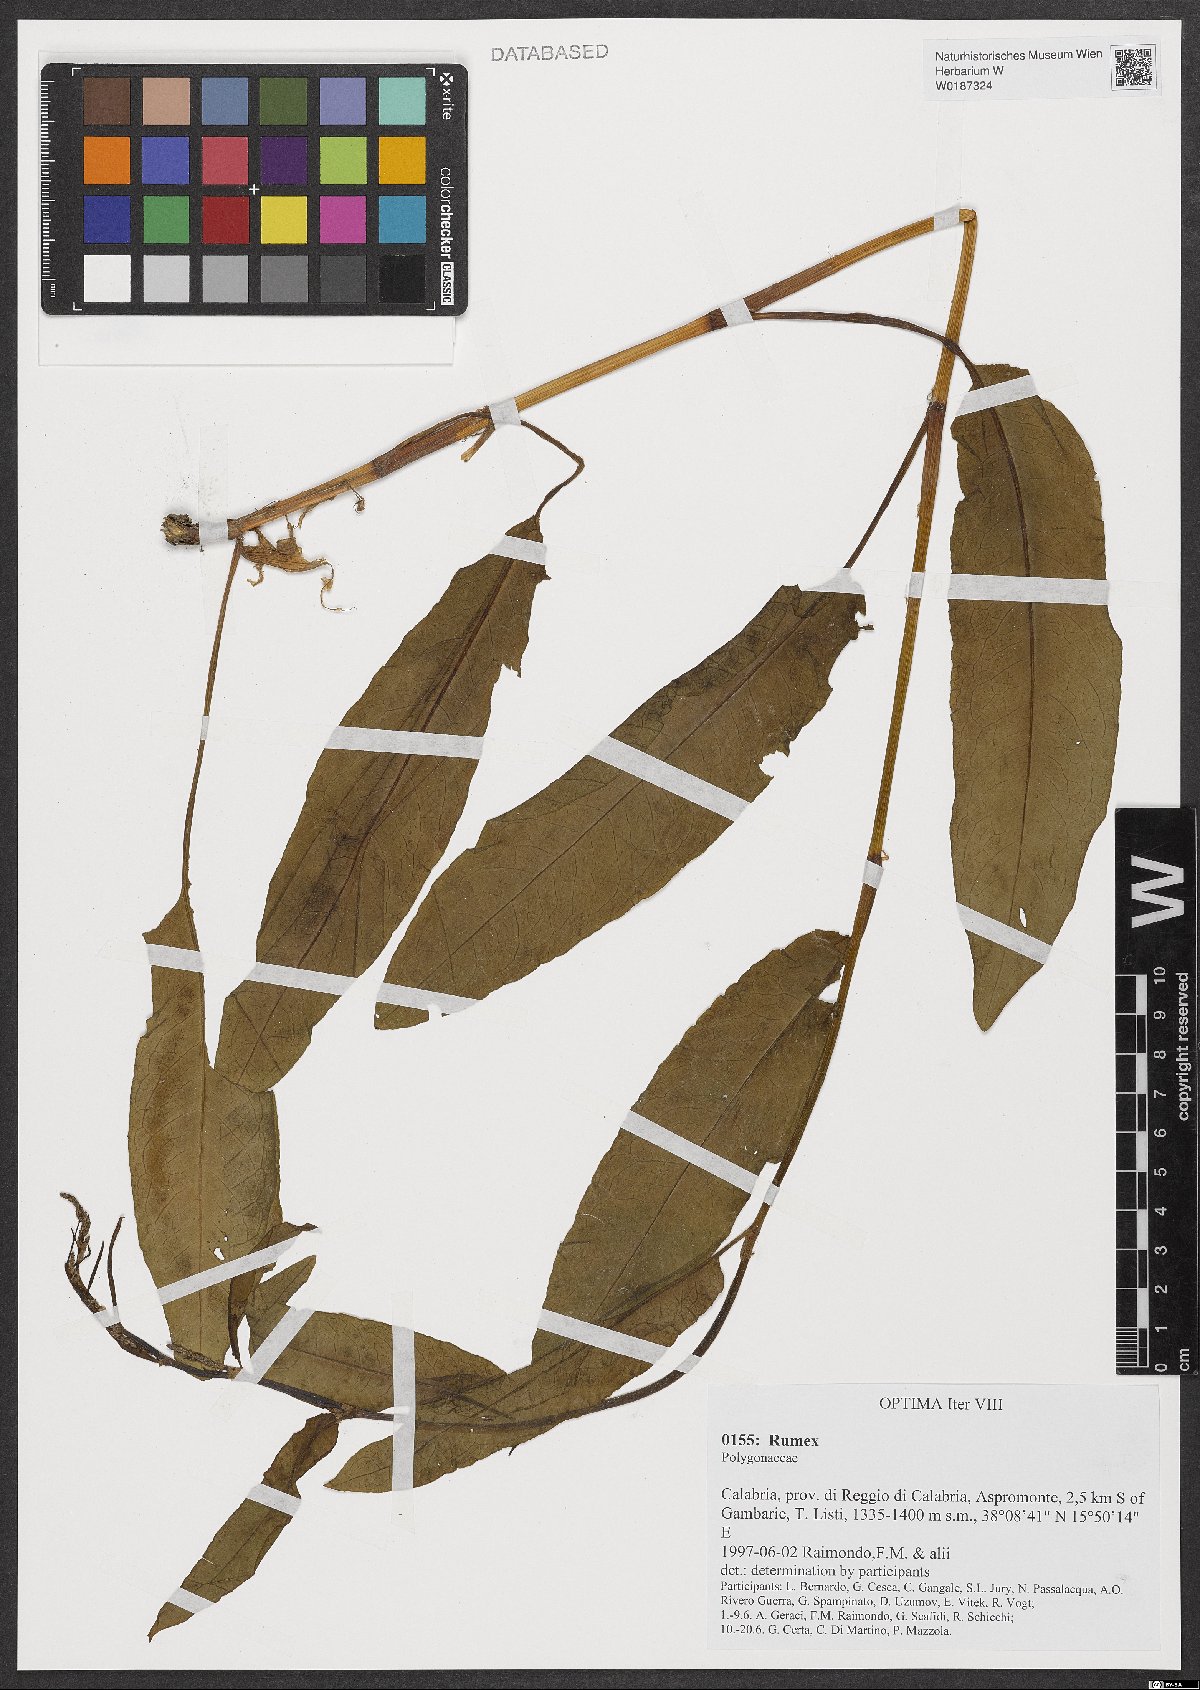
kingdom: Plantae
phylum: Tracheophyta
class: Magnoliopsida
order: Caryophyllales
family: Polygonaceae
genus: Rumex
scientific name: Rumex
